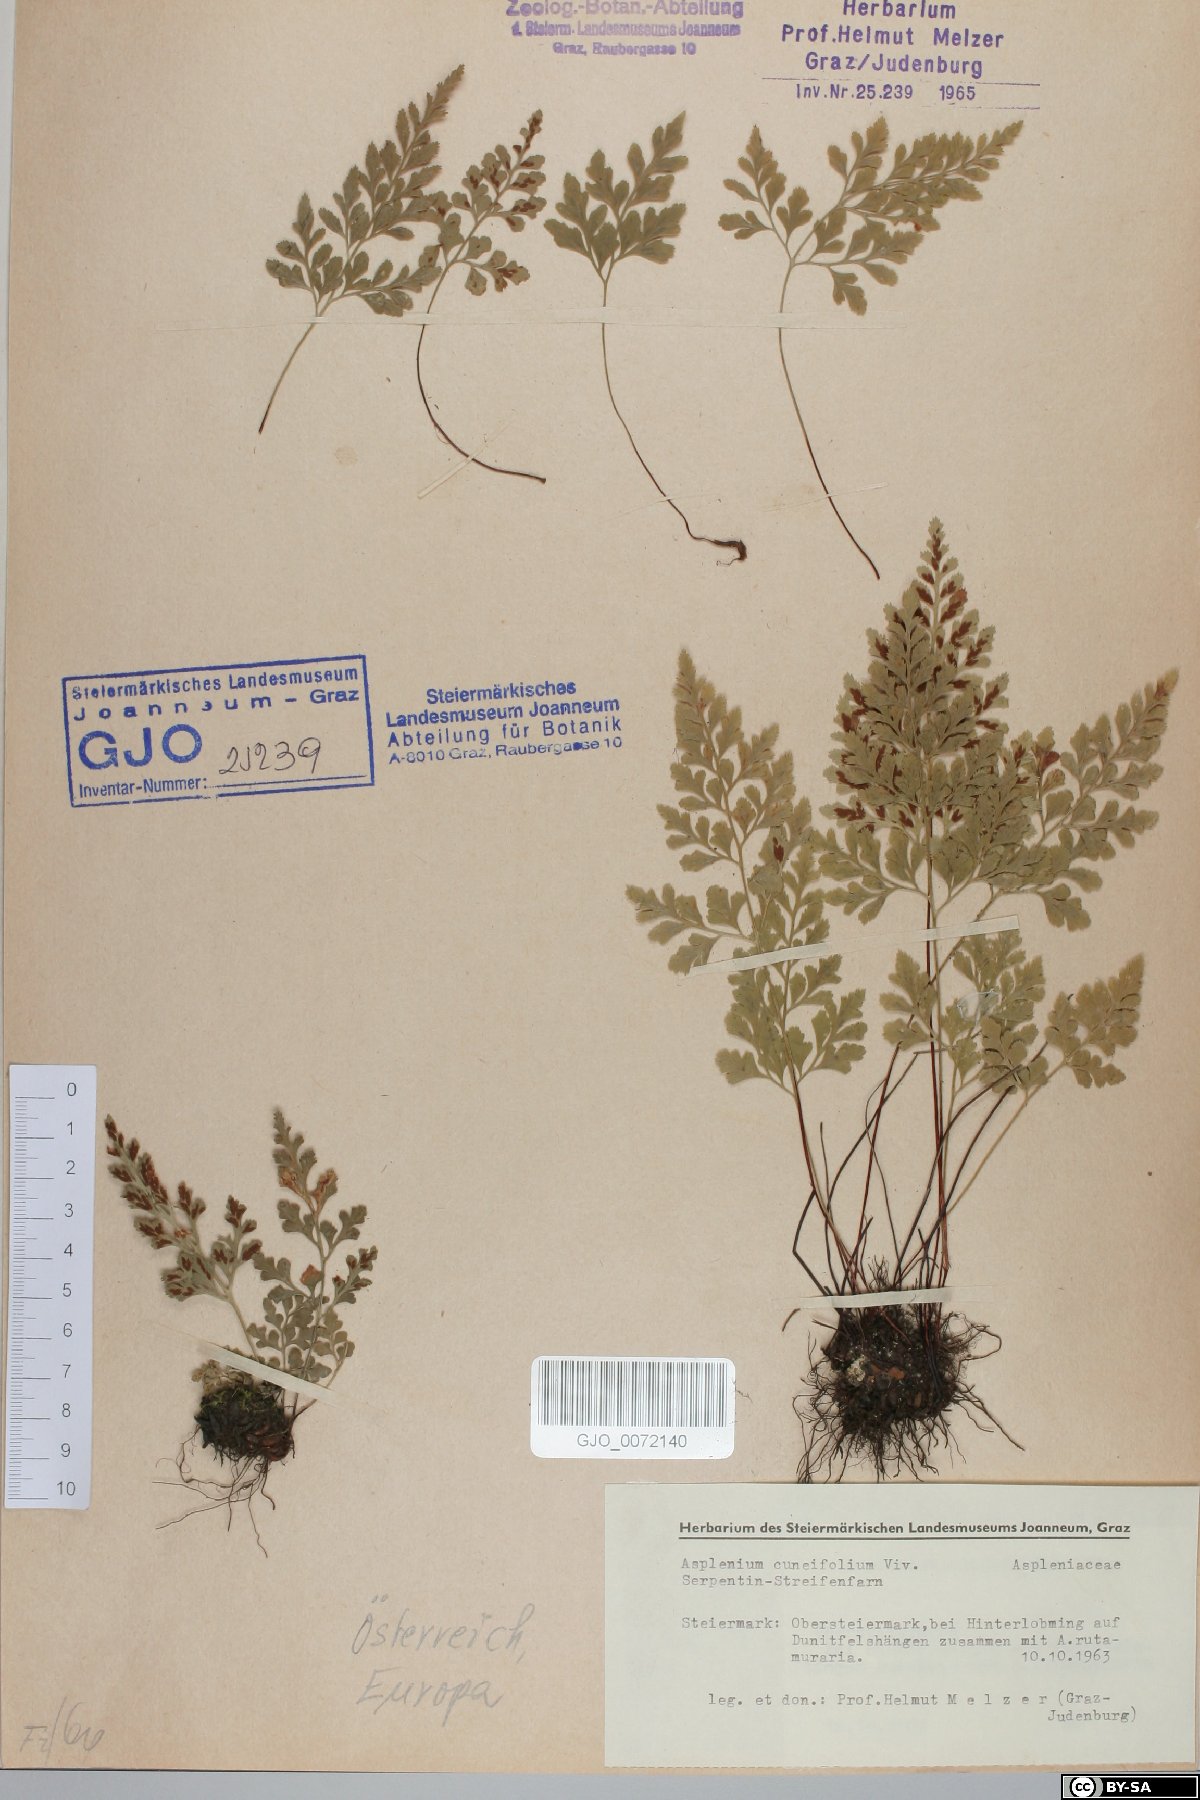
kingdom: Plantae
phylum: Tracheophyta
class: Polypodiopsida
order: Polypodiales
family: Aspleniaceae
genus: Asplenium
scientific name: Asplenium cuneifolium
